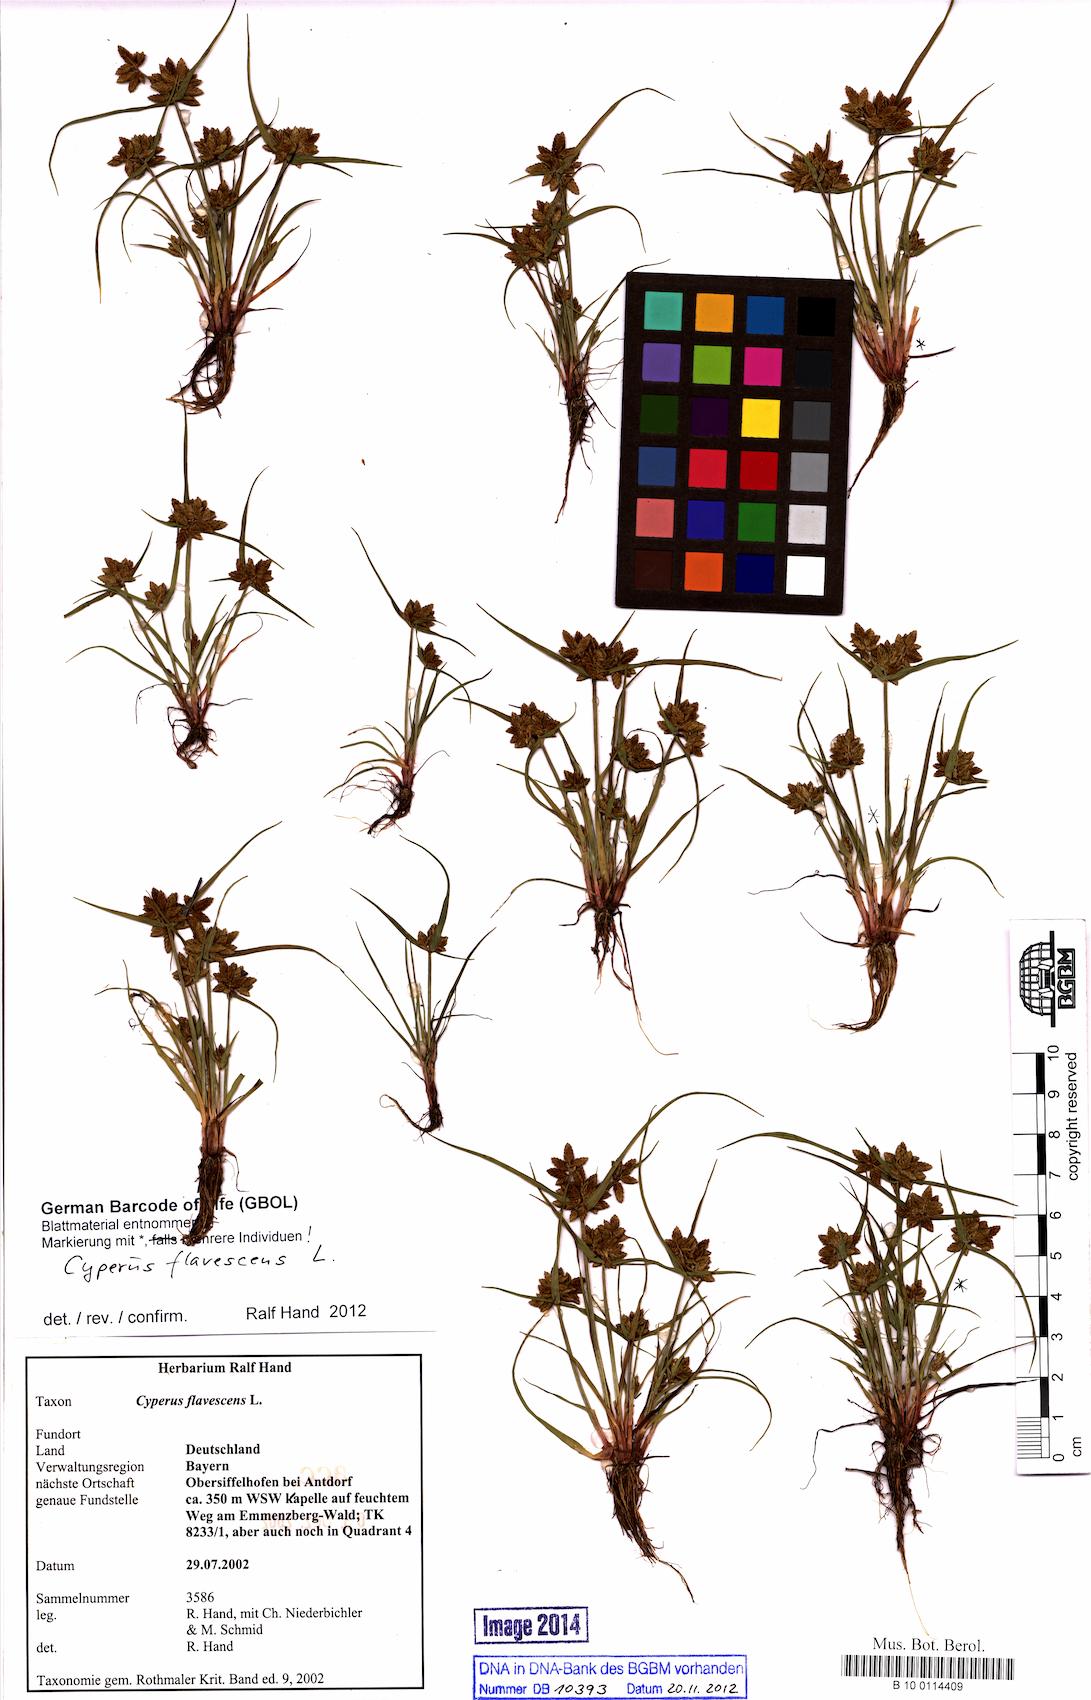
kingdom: Plantae
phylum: Tracheophyta
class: Liliopsida
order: Poales
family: Cyperaceae
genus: Cyperus
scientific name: Cyperus flavescens
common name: Yellow galingale
